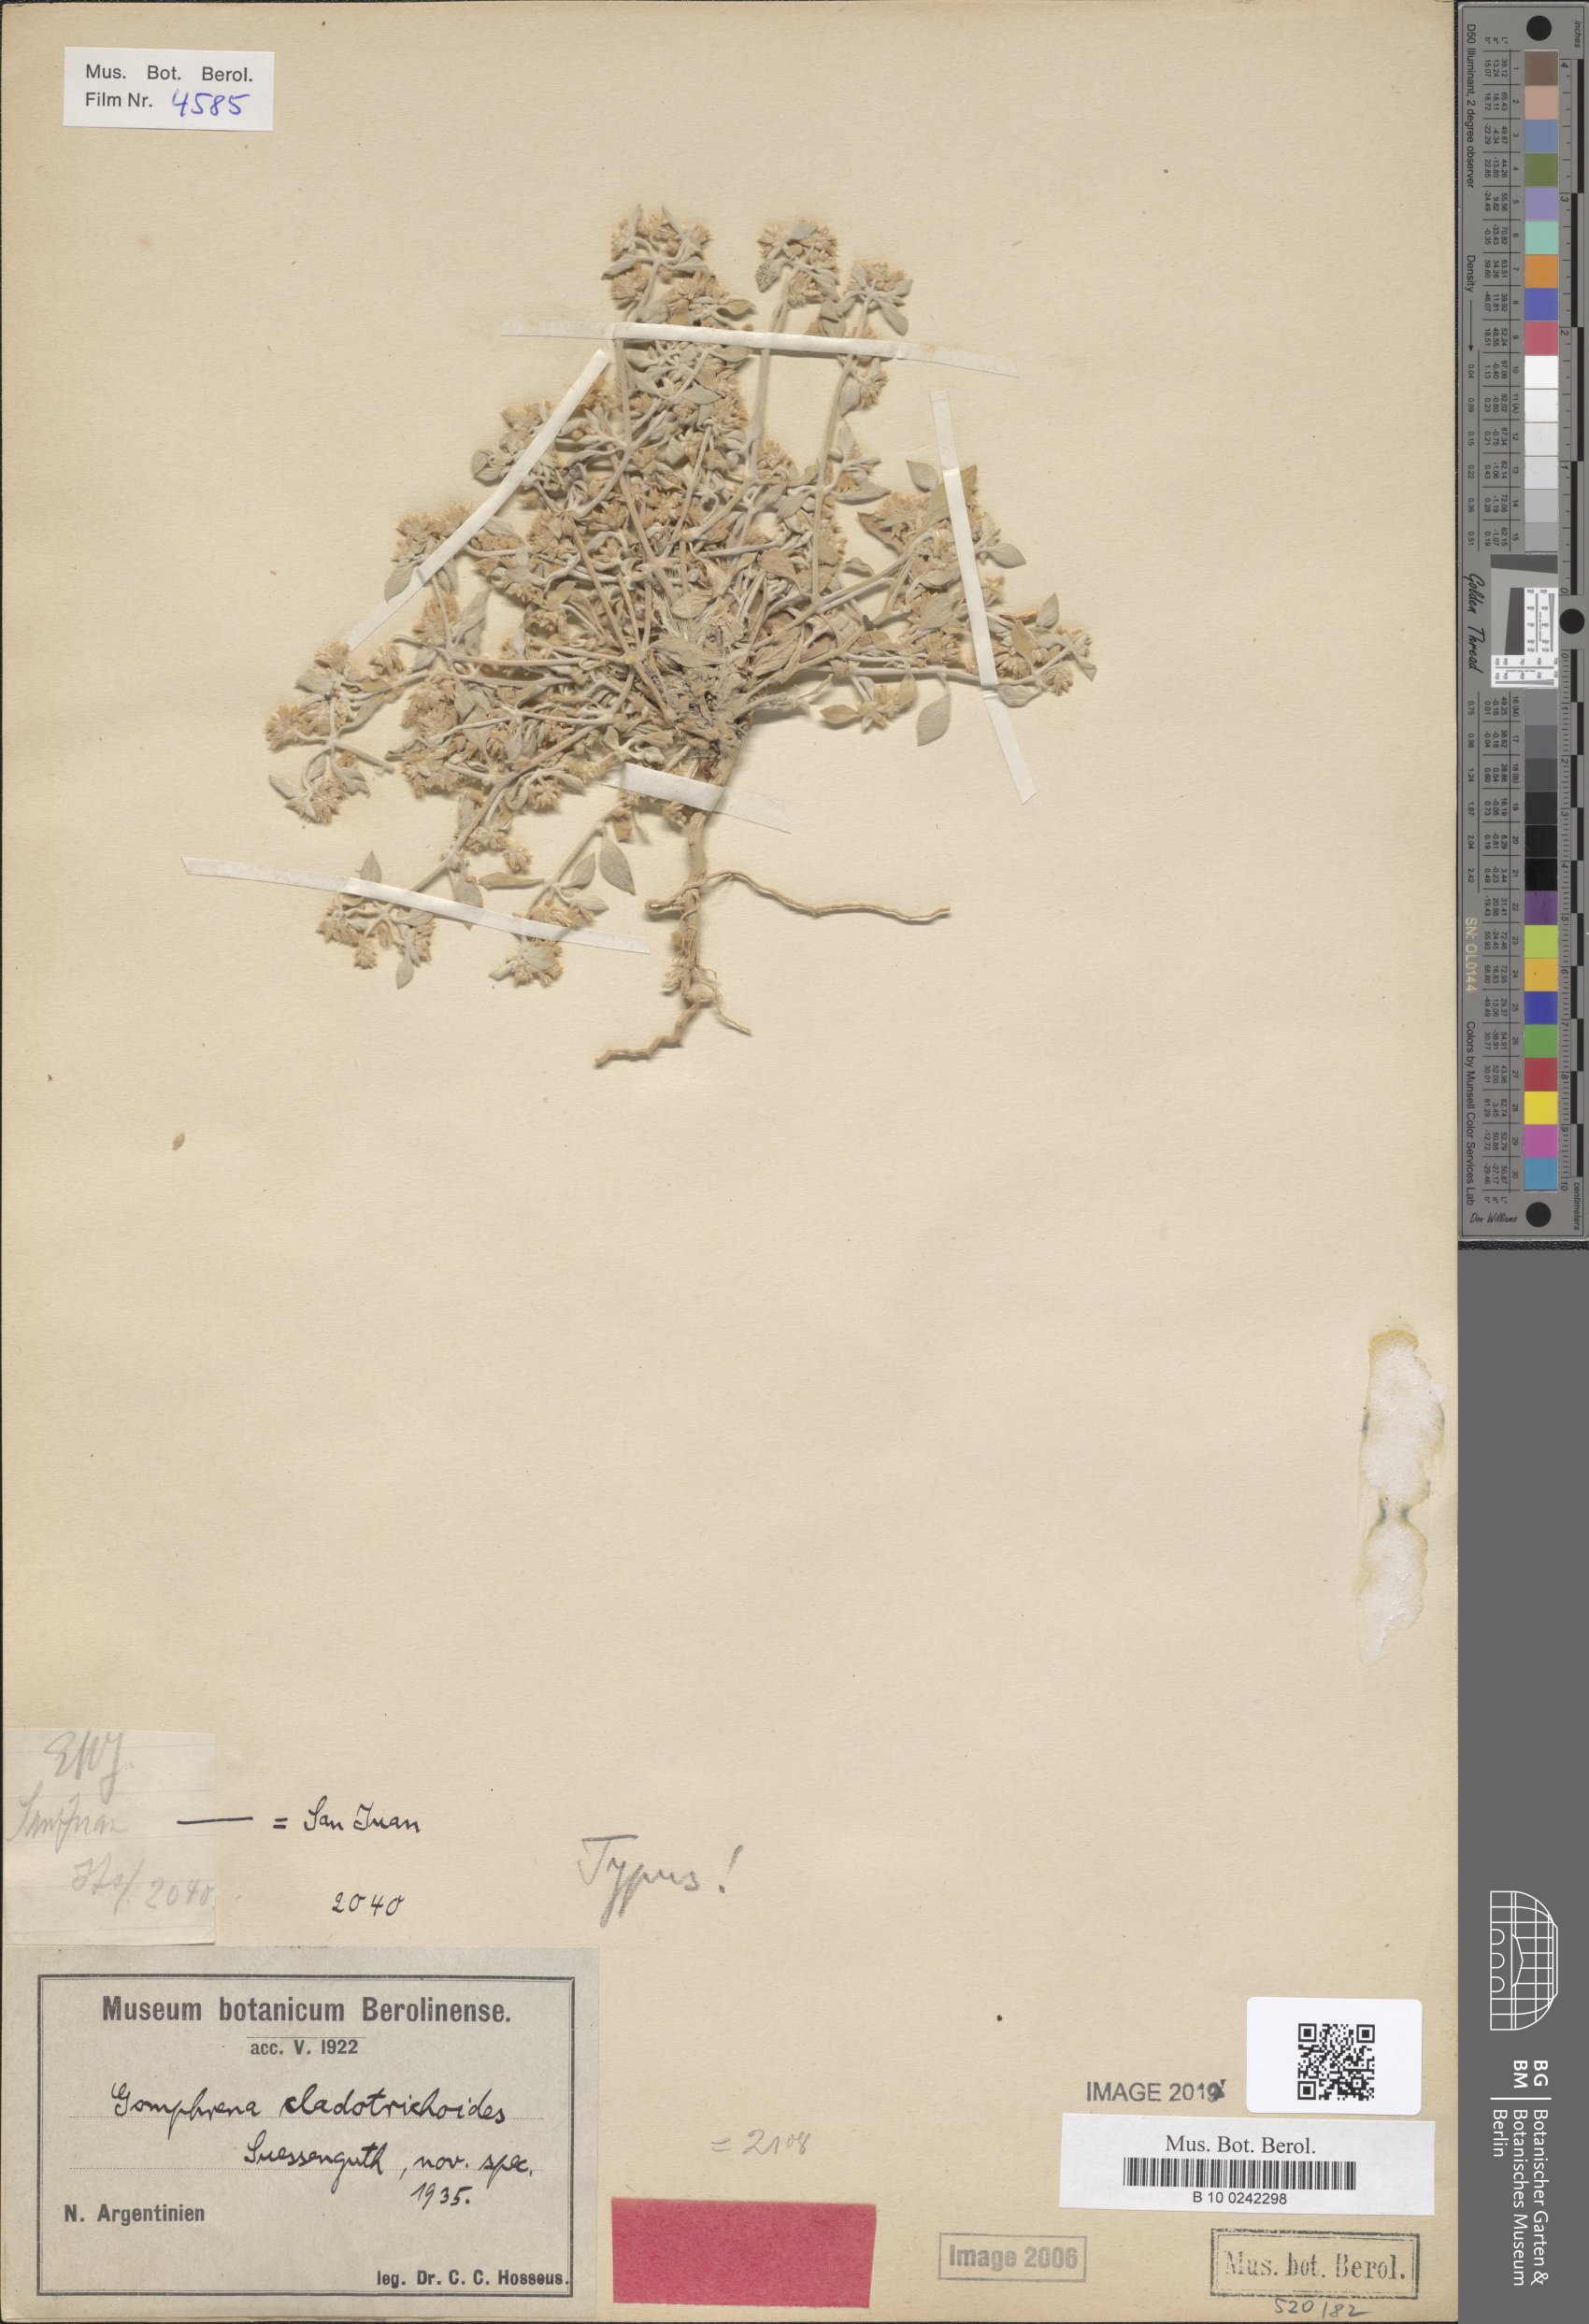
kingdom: Plantae
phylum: Tracheophyta
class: Magnoliopsida
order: Caryophyllales
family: Amaranthaceae
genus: Gomphrena
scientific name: Gomphrena cladotrichoides
